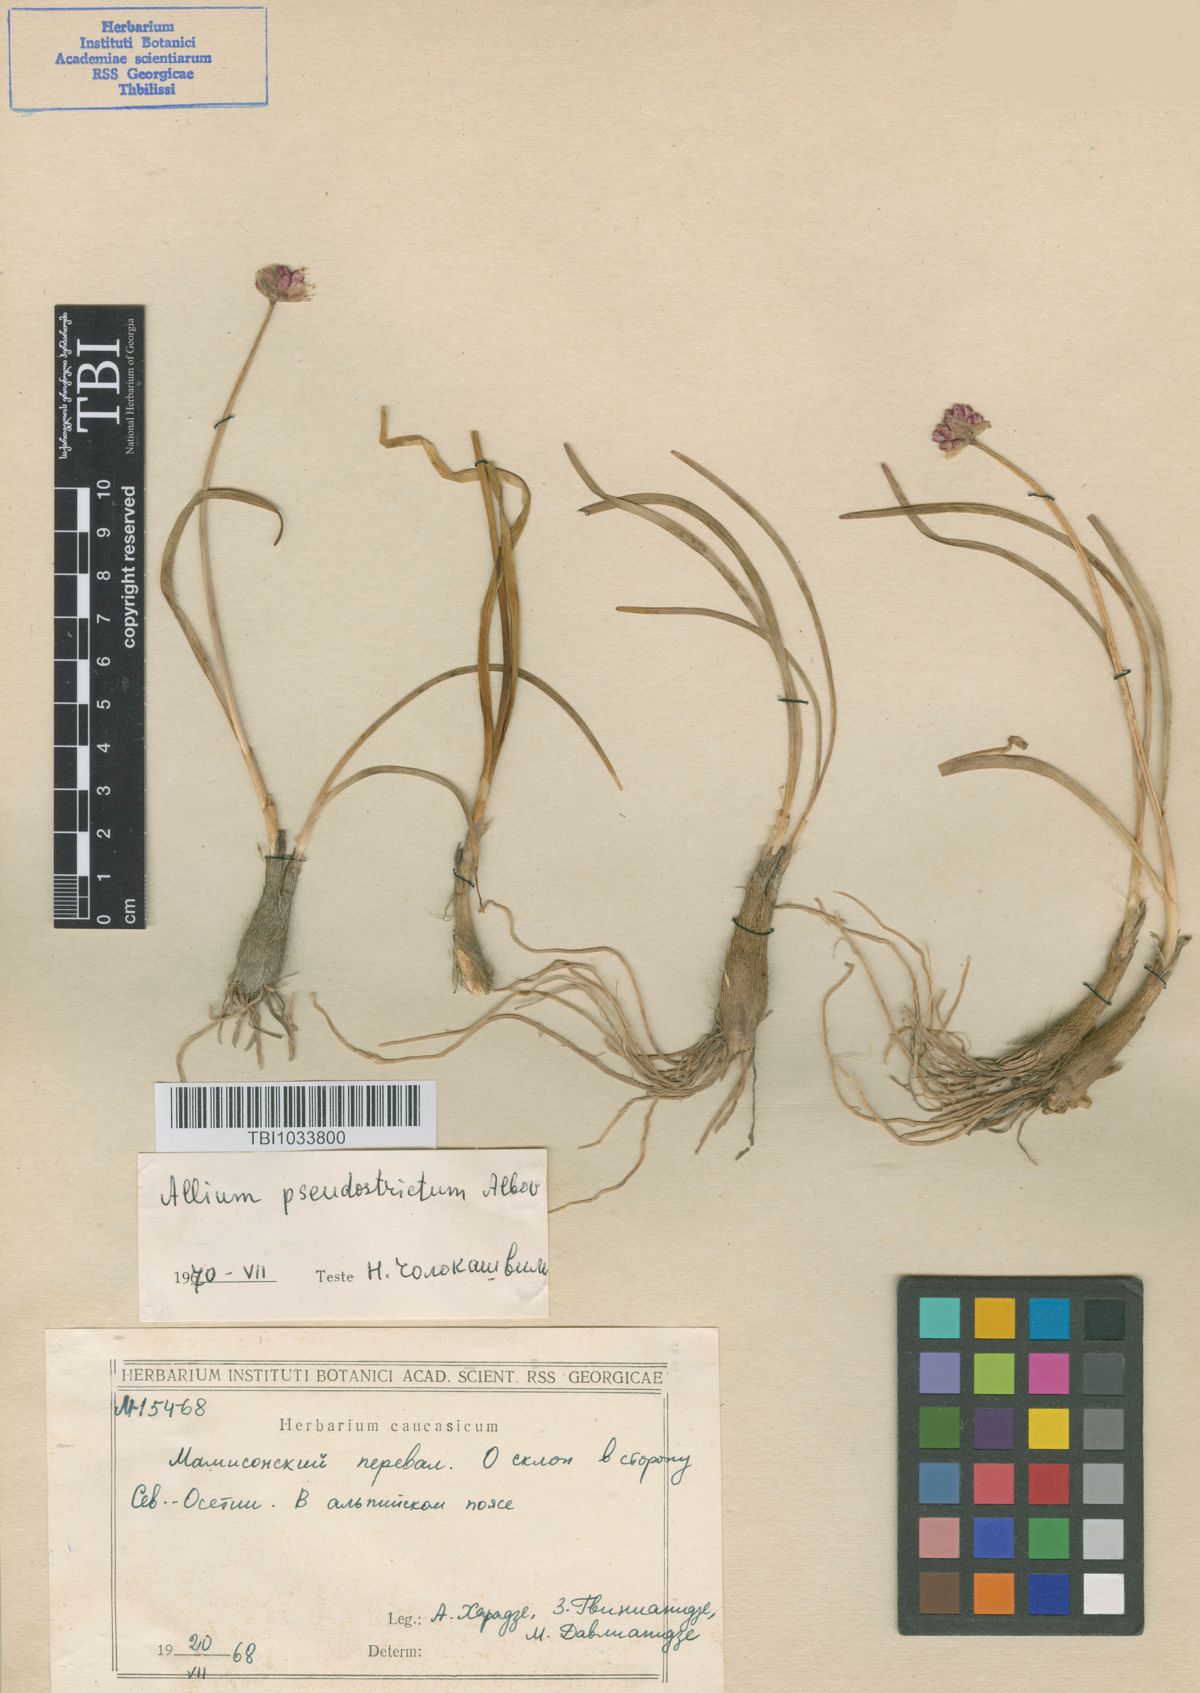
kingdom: Plantae
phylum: Tracheophyta
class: Liliopsida
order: Asparagales
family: Amaryllidaceae
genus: Allium
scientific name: Allium pseudostrictum
